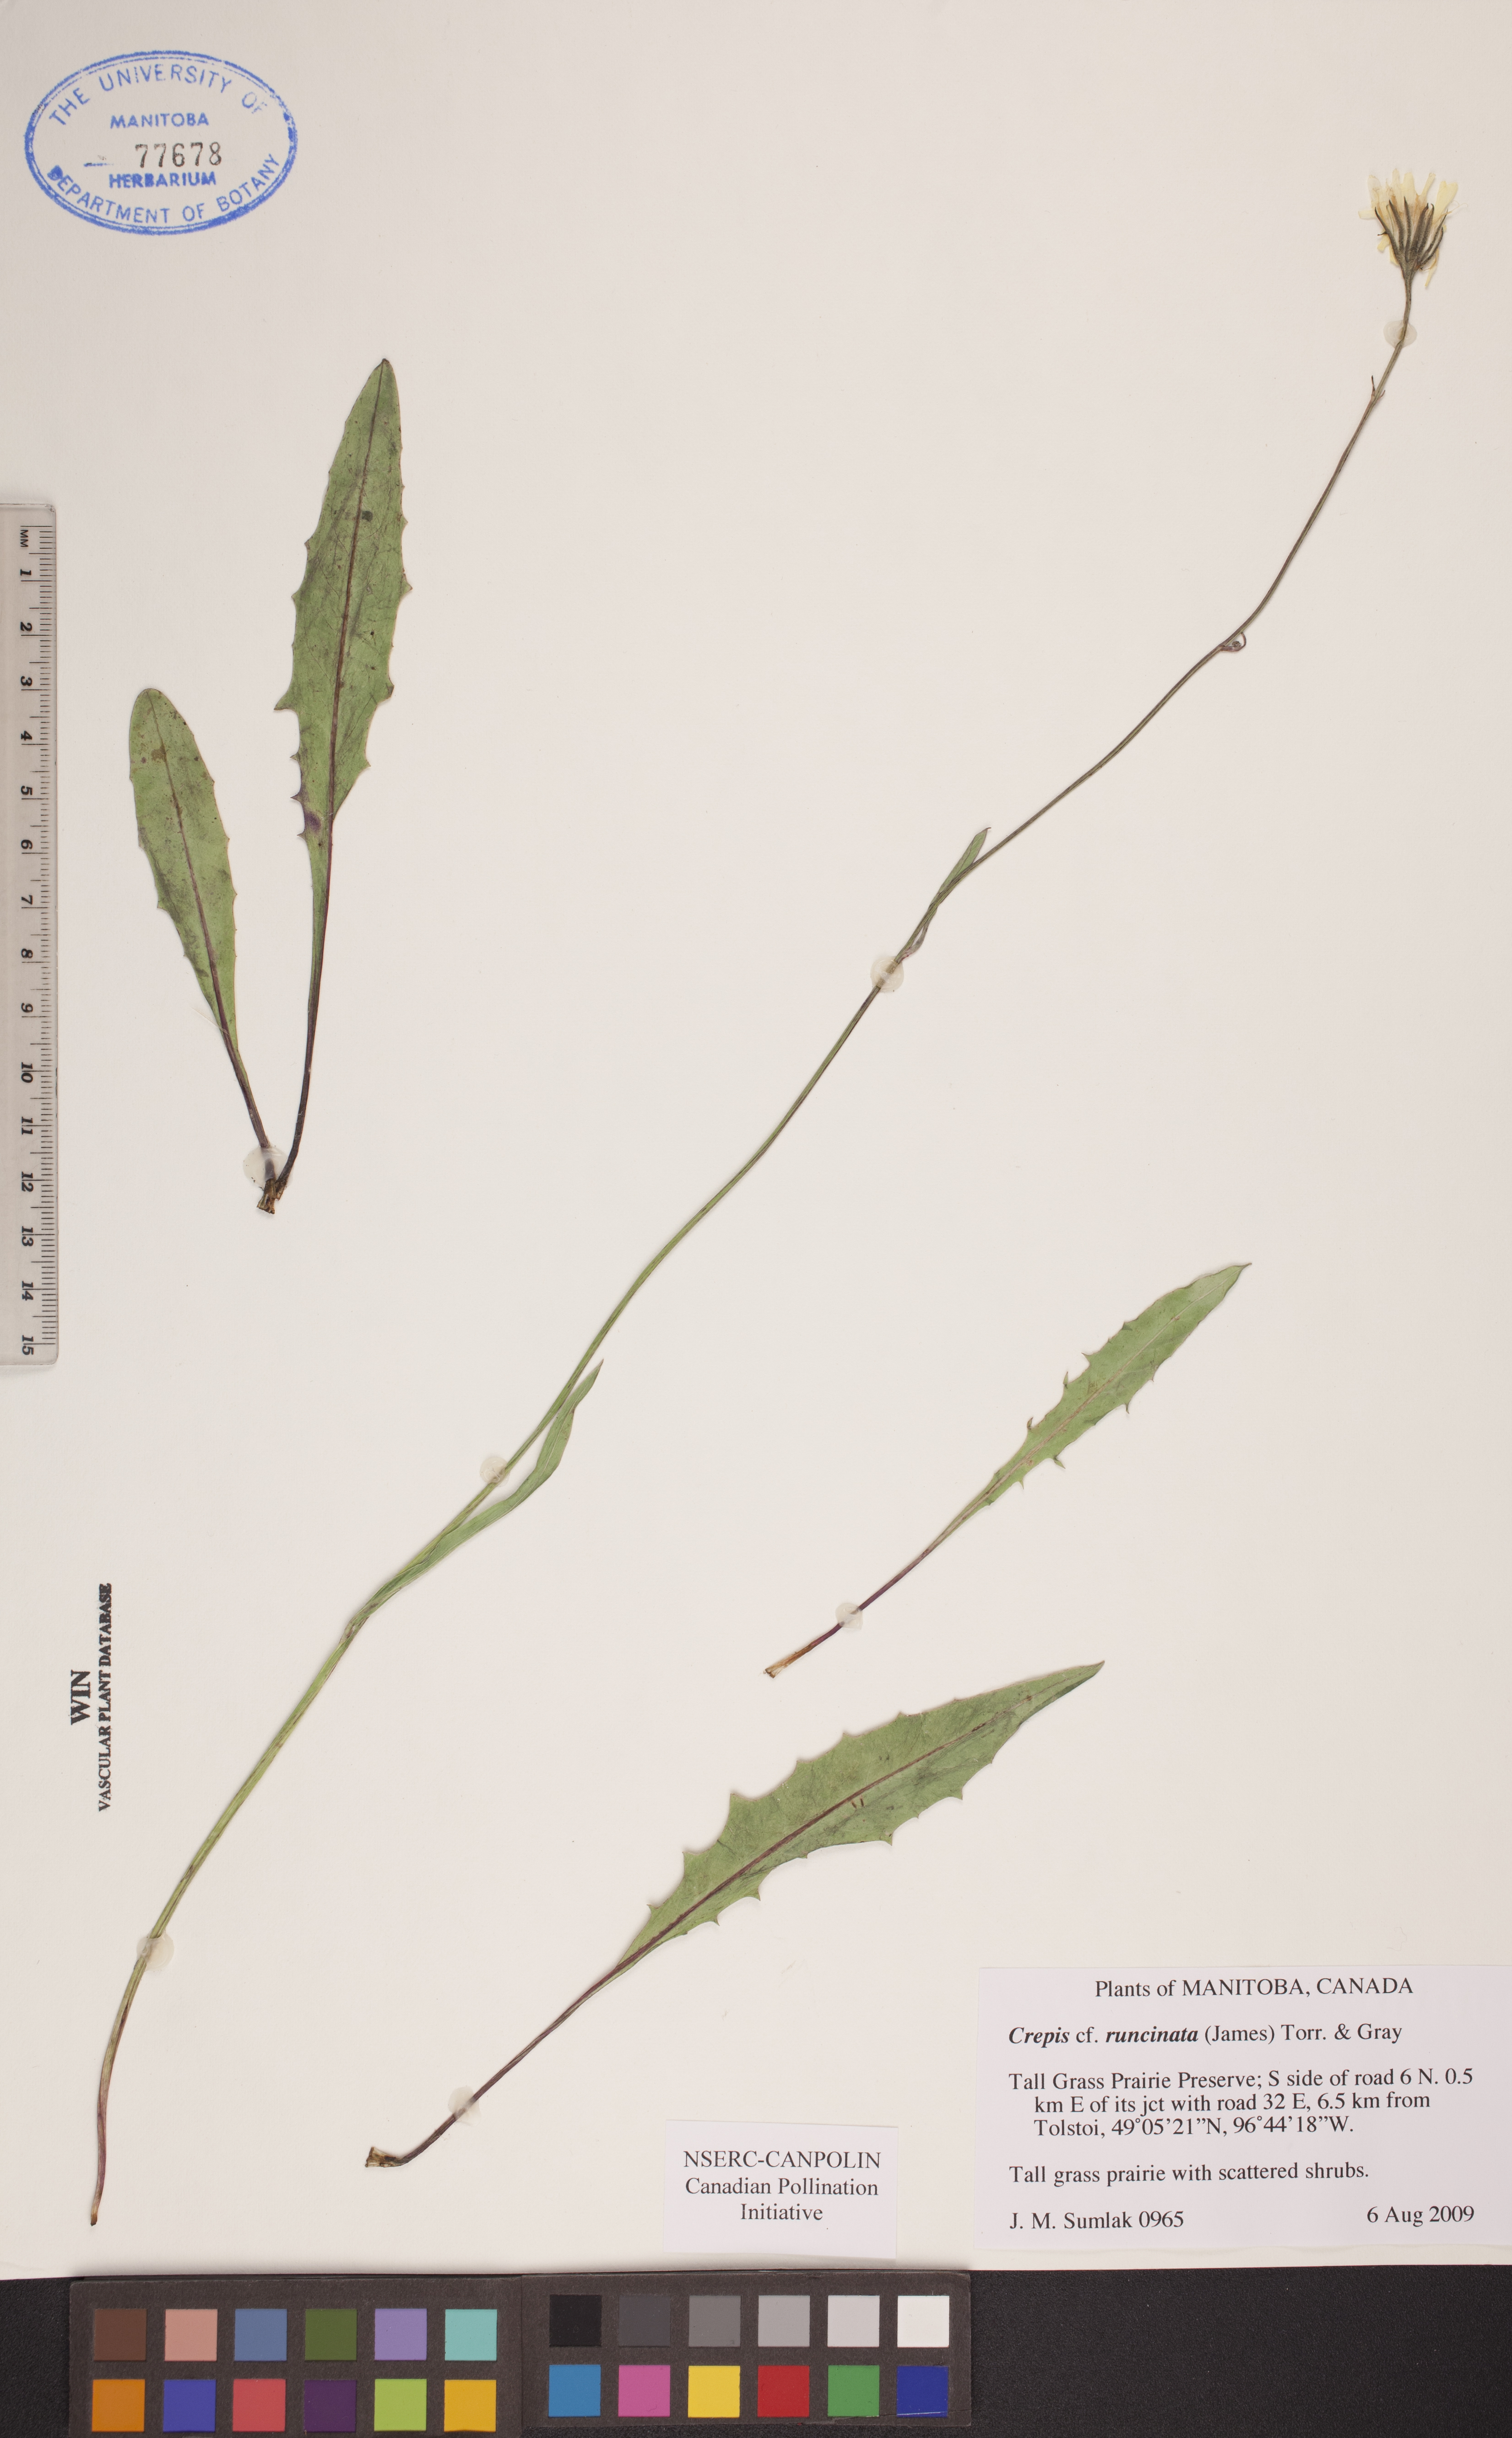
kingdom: Plantae
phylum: Tracheophyta
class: Magnoliopsida
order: Asterales
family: Asteraceae
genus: Crepis
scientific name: Crepis runcinata
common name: Dandelion hawksbeard
